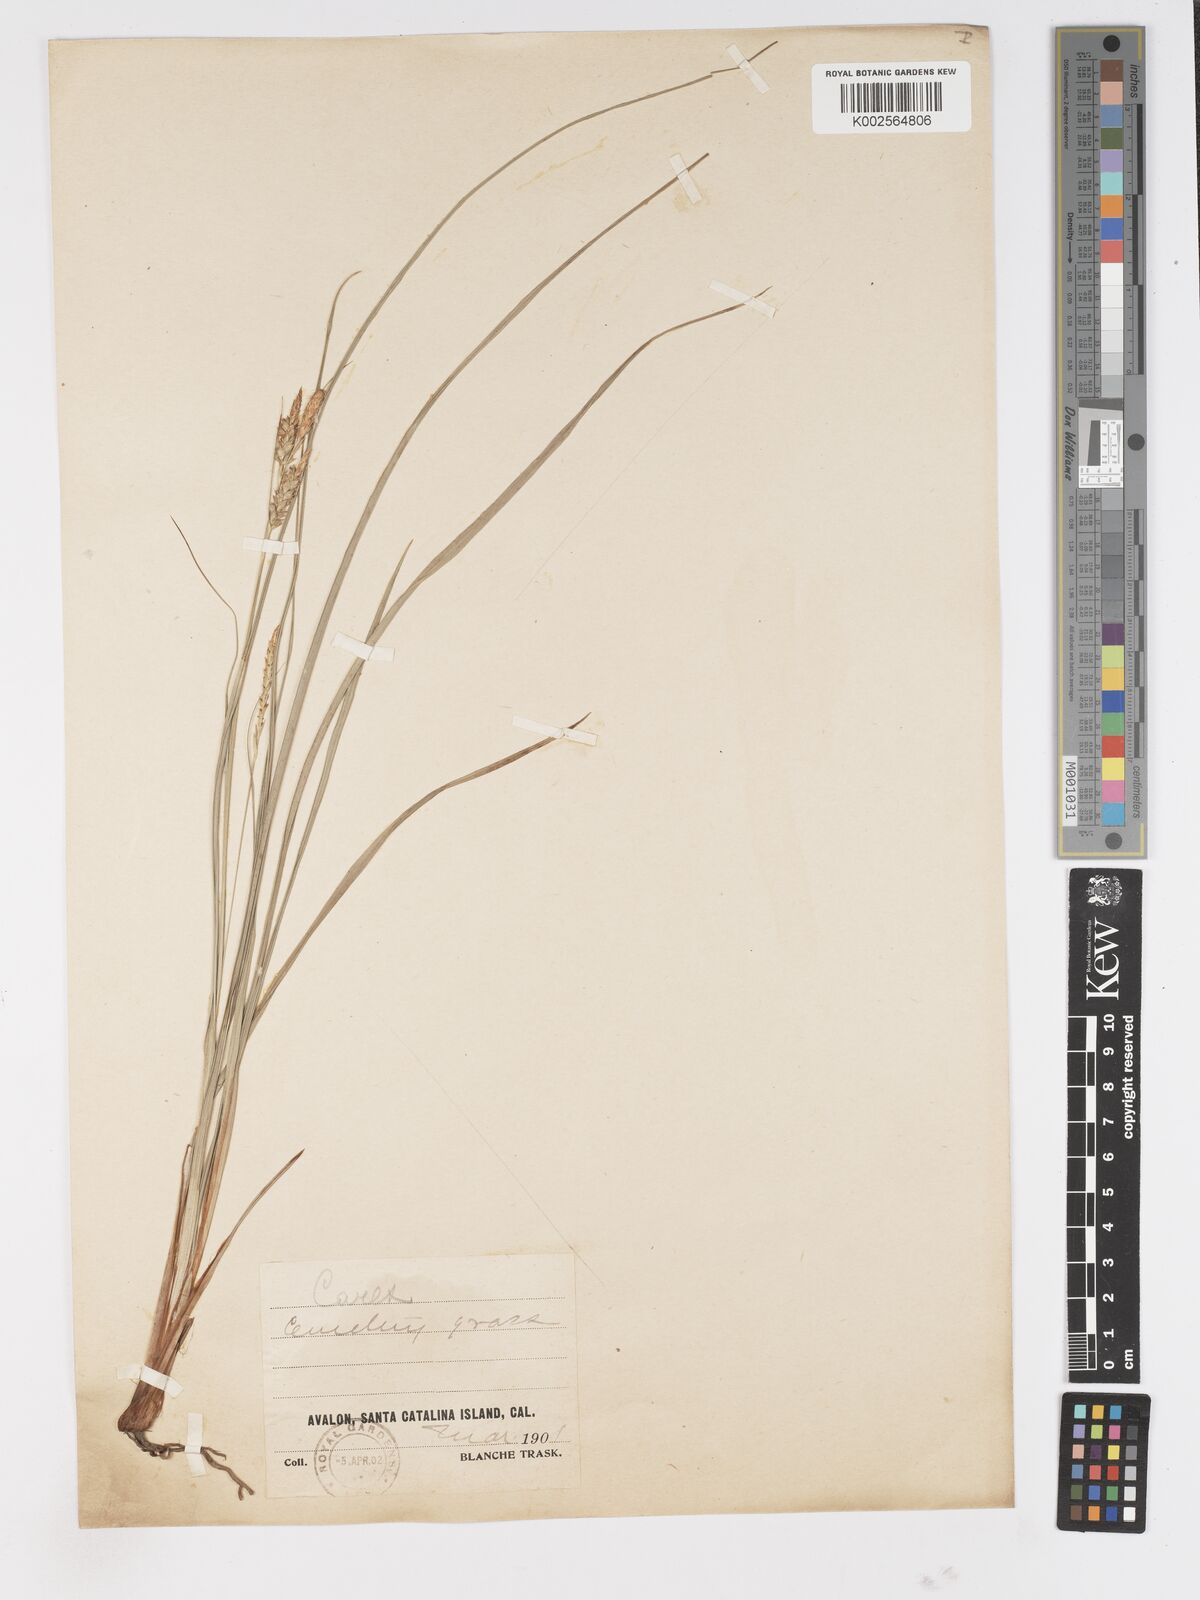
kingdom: Plantae
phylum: Tracheophyta
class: Liliopsida
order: Poales
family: Cyperaceae
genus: Carex
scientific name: Carex
